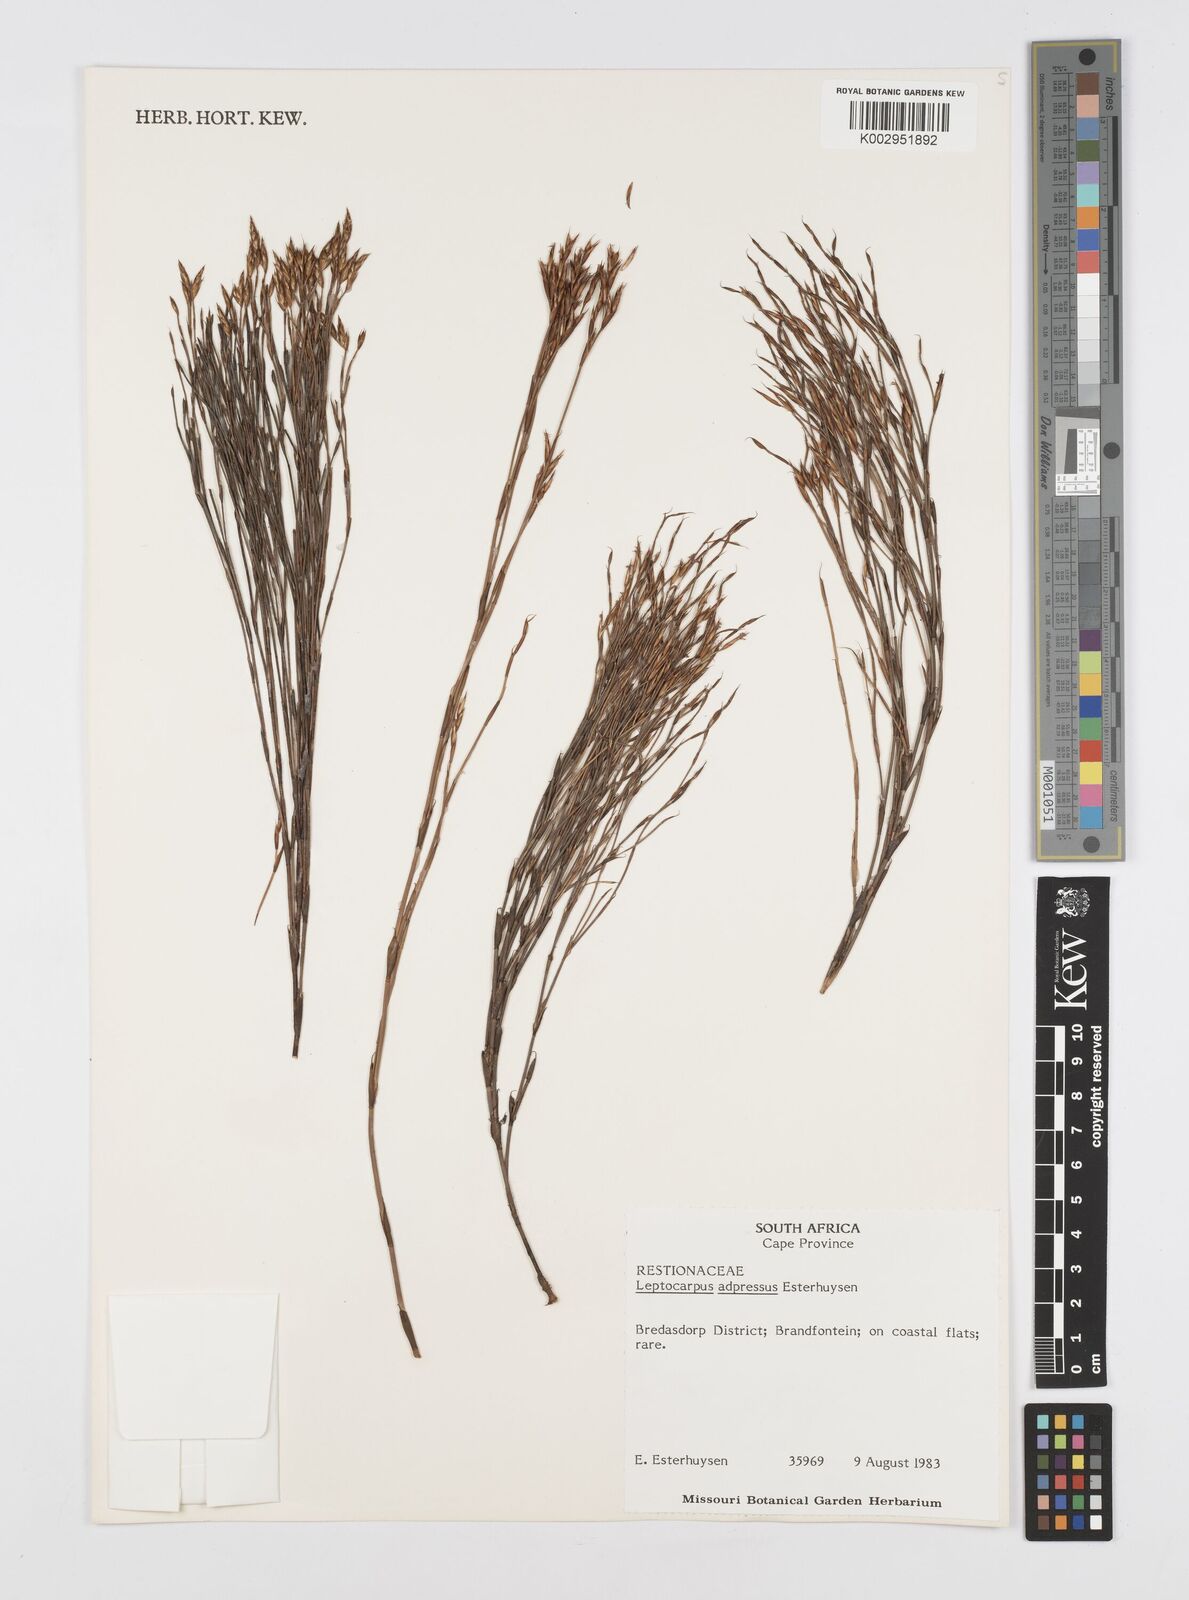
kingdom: Plantae
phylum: Tracheophyta
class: Liliopsida
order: Poales
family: Restionaceae
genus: Restio
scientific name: Restio adpressus
